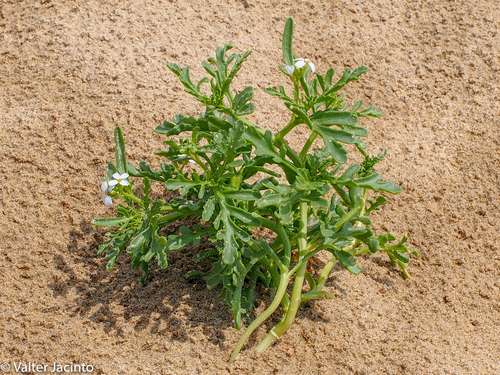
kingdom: Plantae
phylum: Tracheophyta
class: Magnoliopsida
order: Brassicales
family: Brassicaceae
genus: Cakile
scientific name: Cakile maritima
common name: Sea rocket
